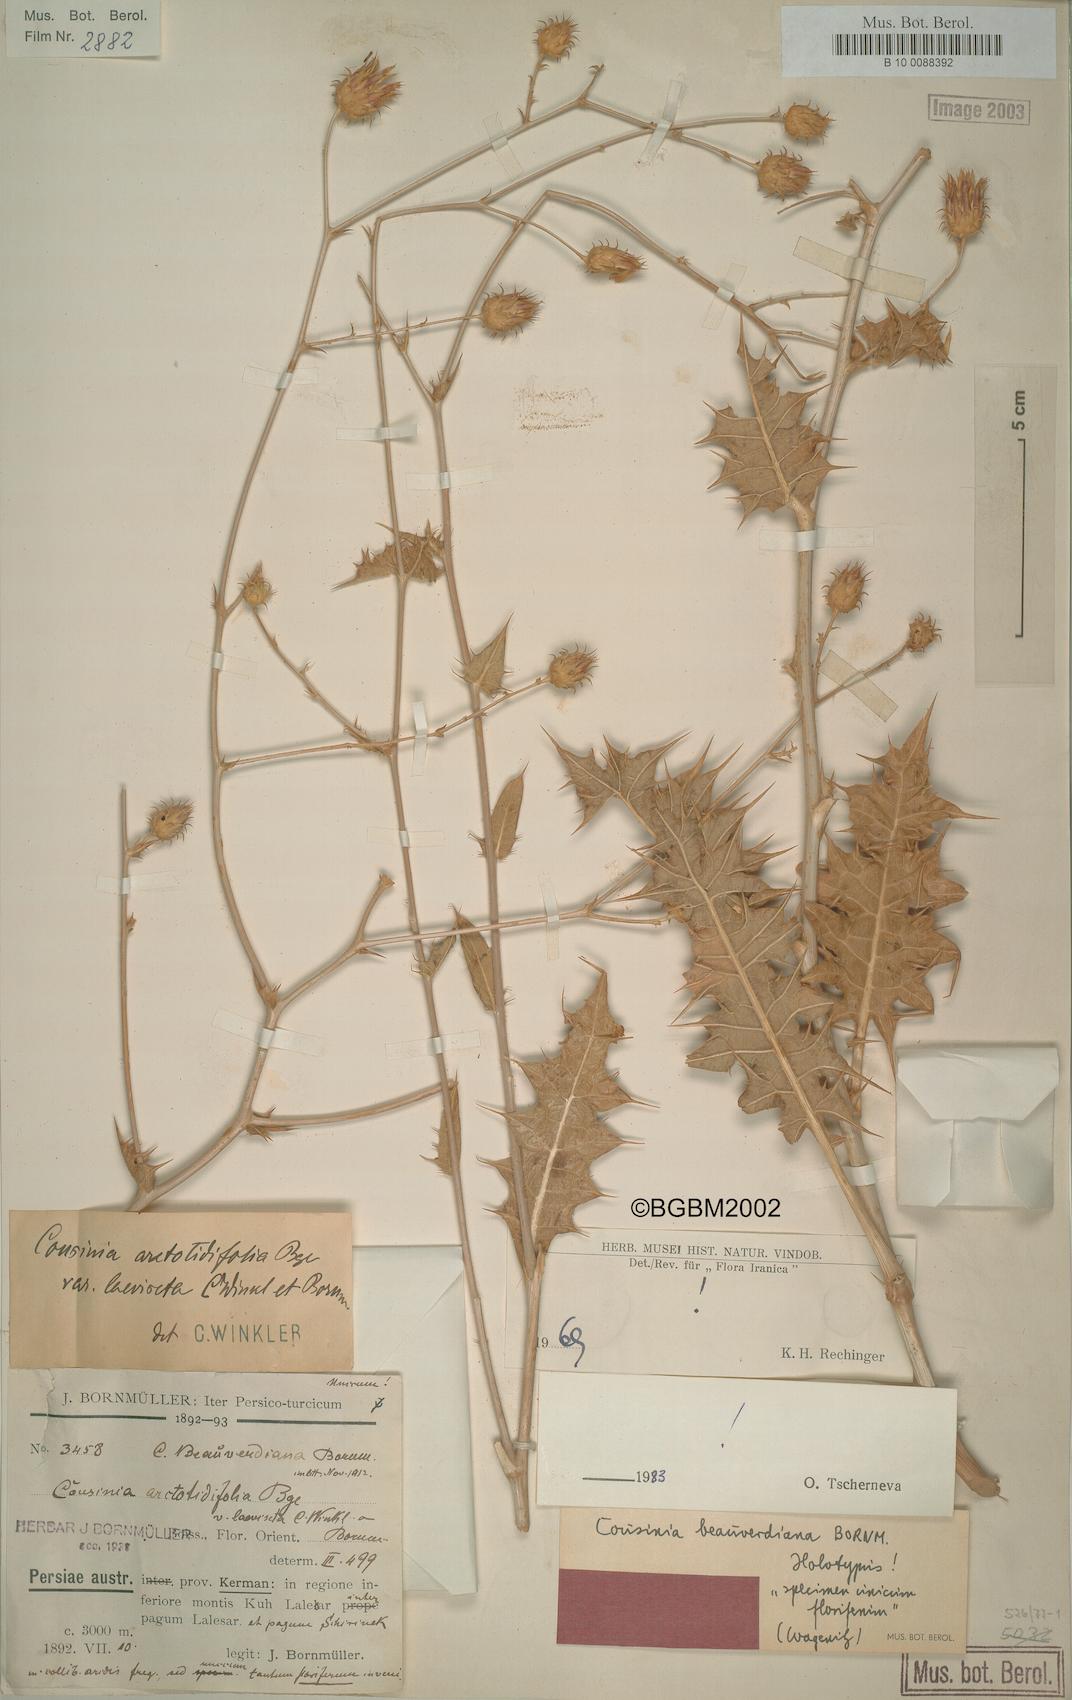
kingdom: Plantae
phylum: Tracheophyta
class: Magnoliopsida
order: Asterales
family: Asteraceae
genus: Cousinia
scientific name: Cousinia beauverdiana
